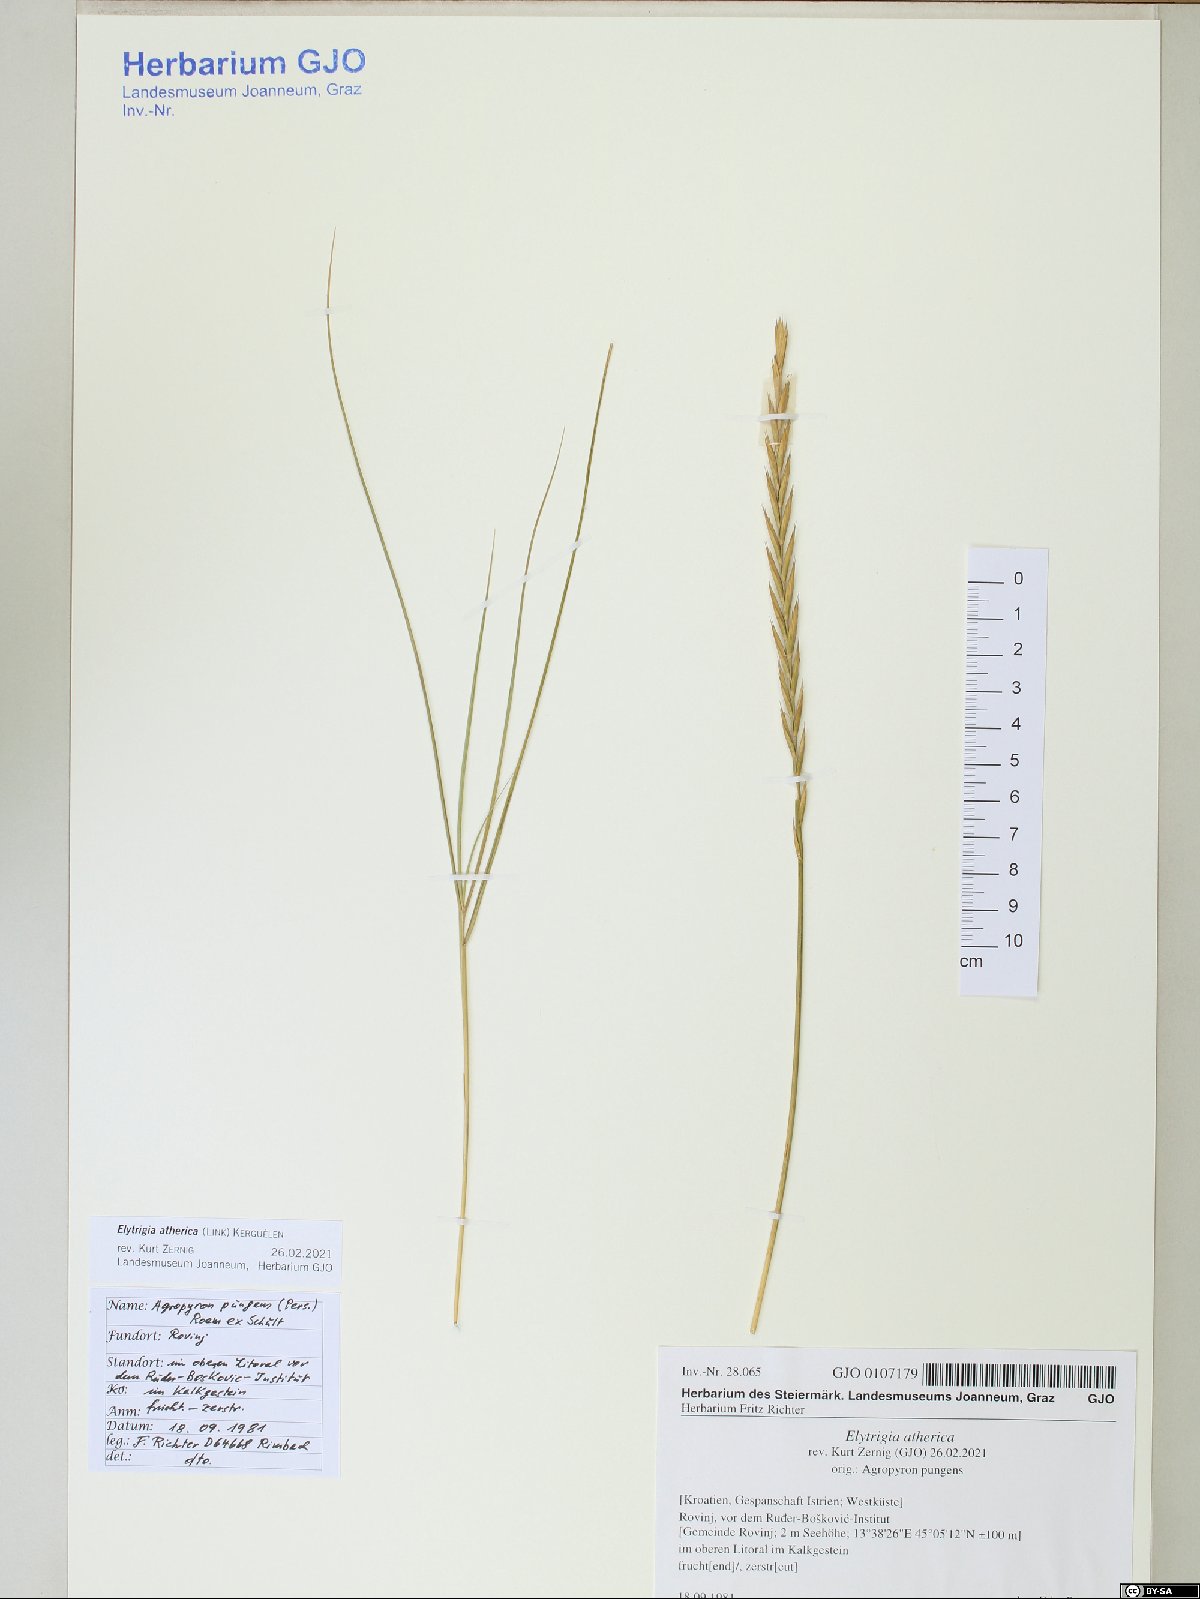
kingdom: Plantae
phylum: Tracheophyta
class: Liliopsida
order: Poales
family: Poaceae
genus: Elymus
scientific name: Elymus athericus
